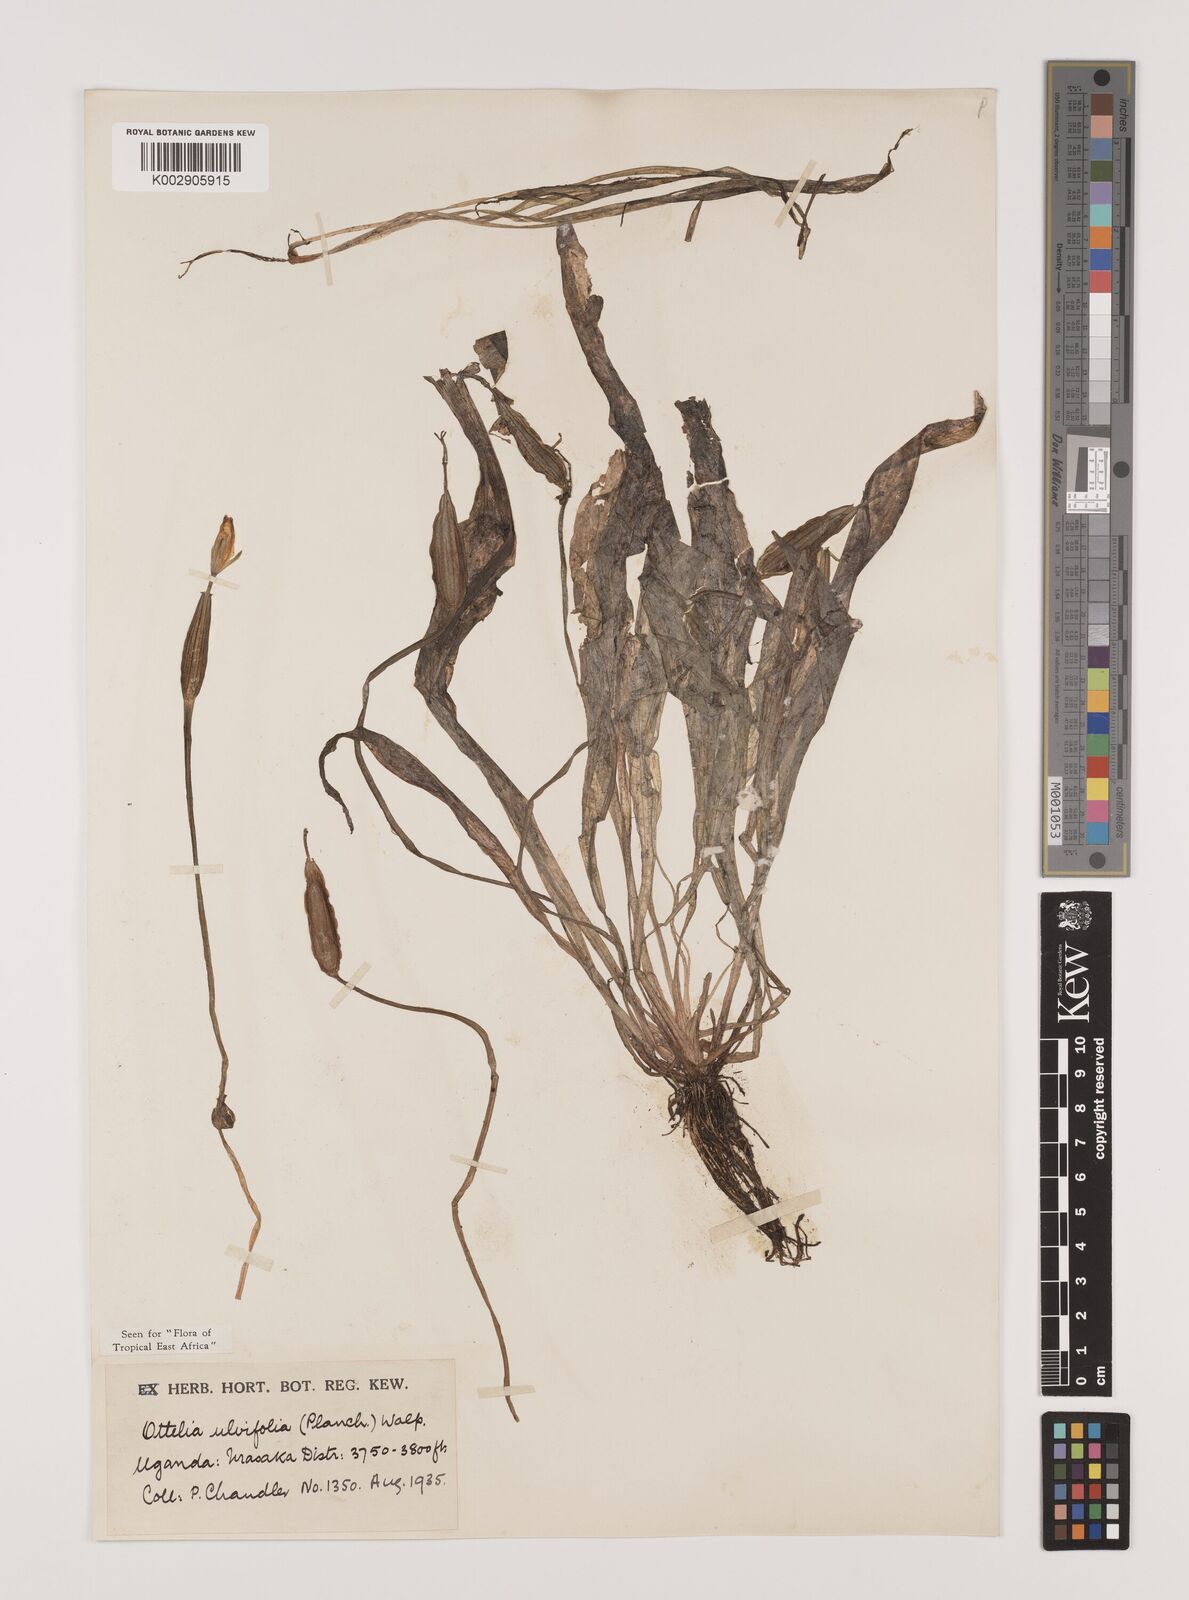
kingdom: Plantae
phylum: Tracheophyta
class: Liliopsida
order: Alismatales
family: Hydrocharitaceae
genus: Ottelia
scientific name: Ottelia ulvifolia
